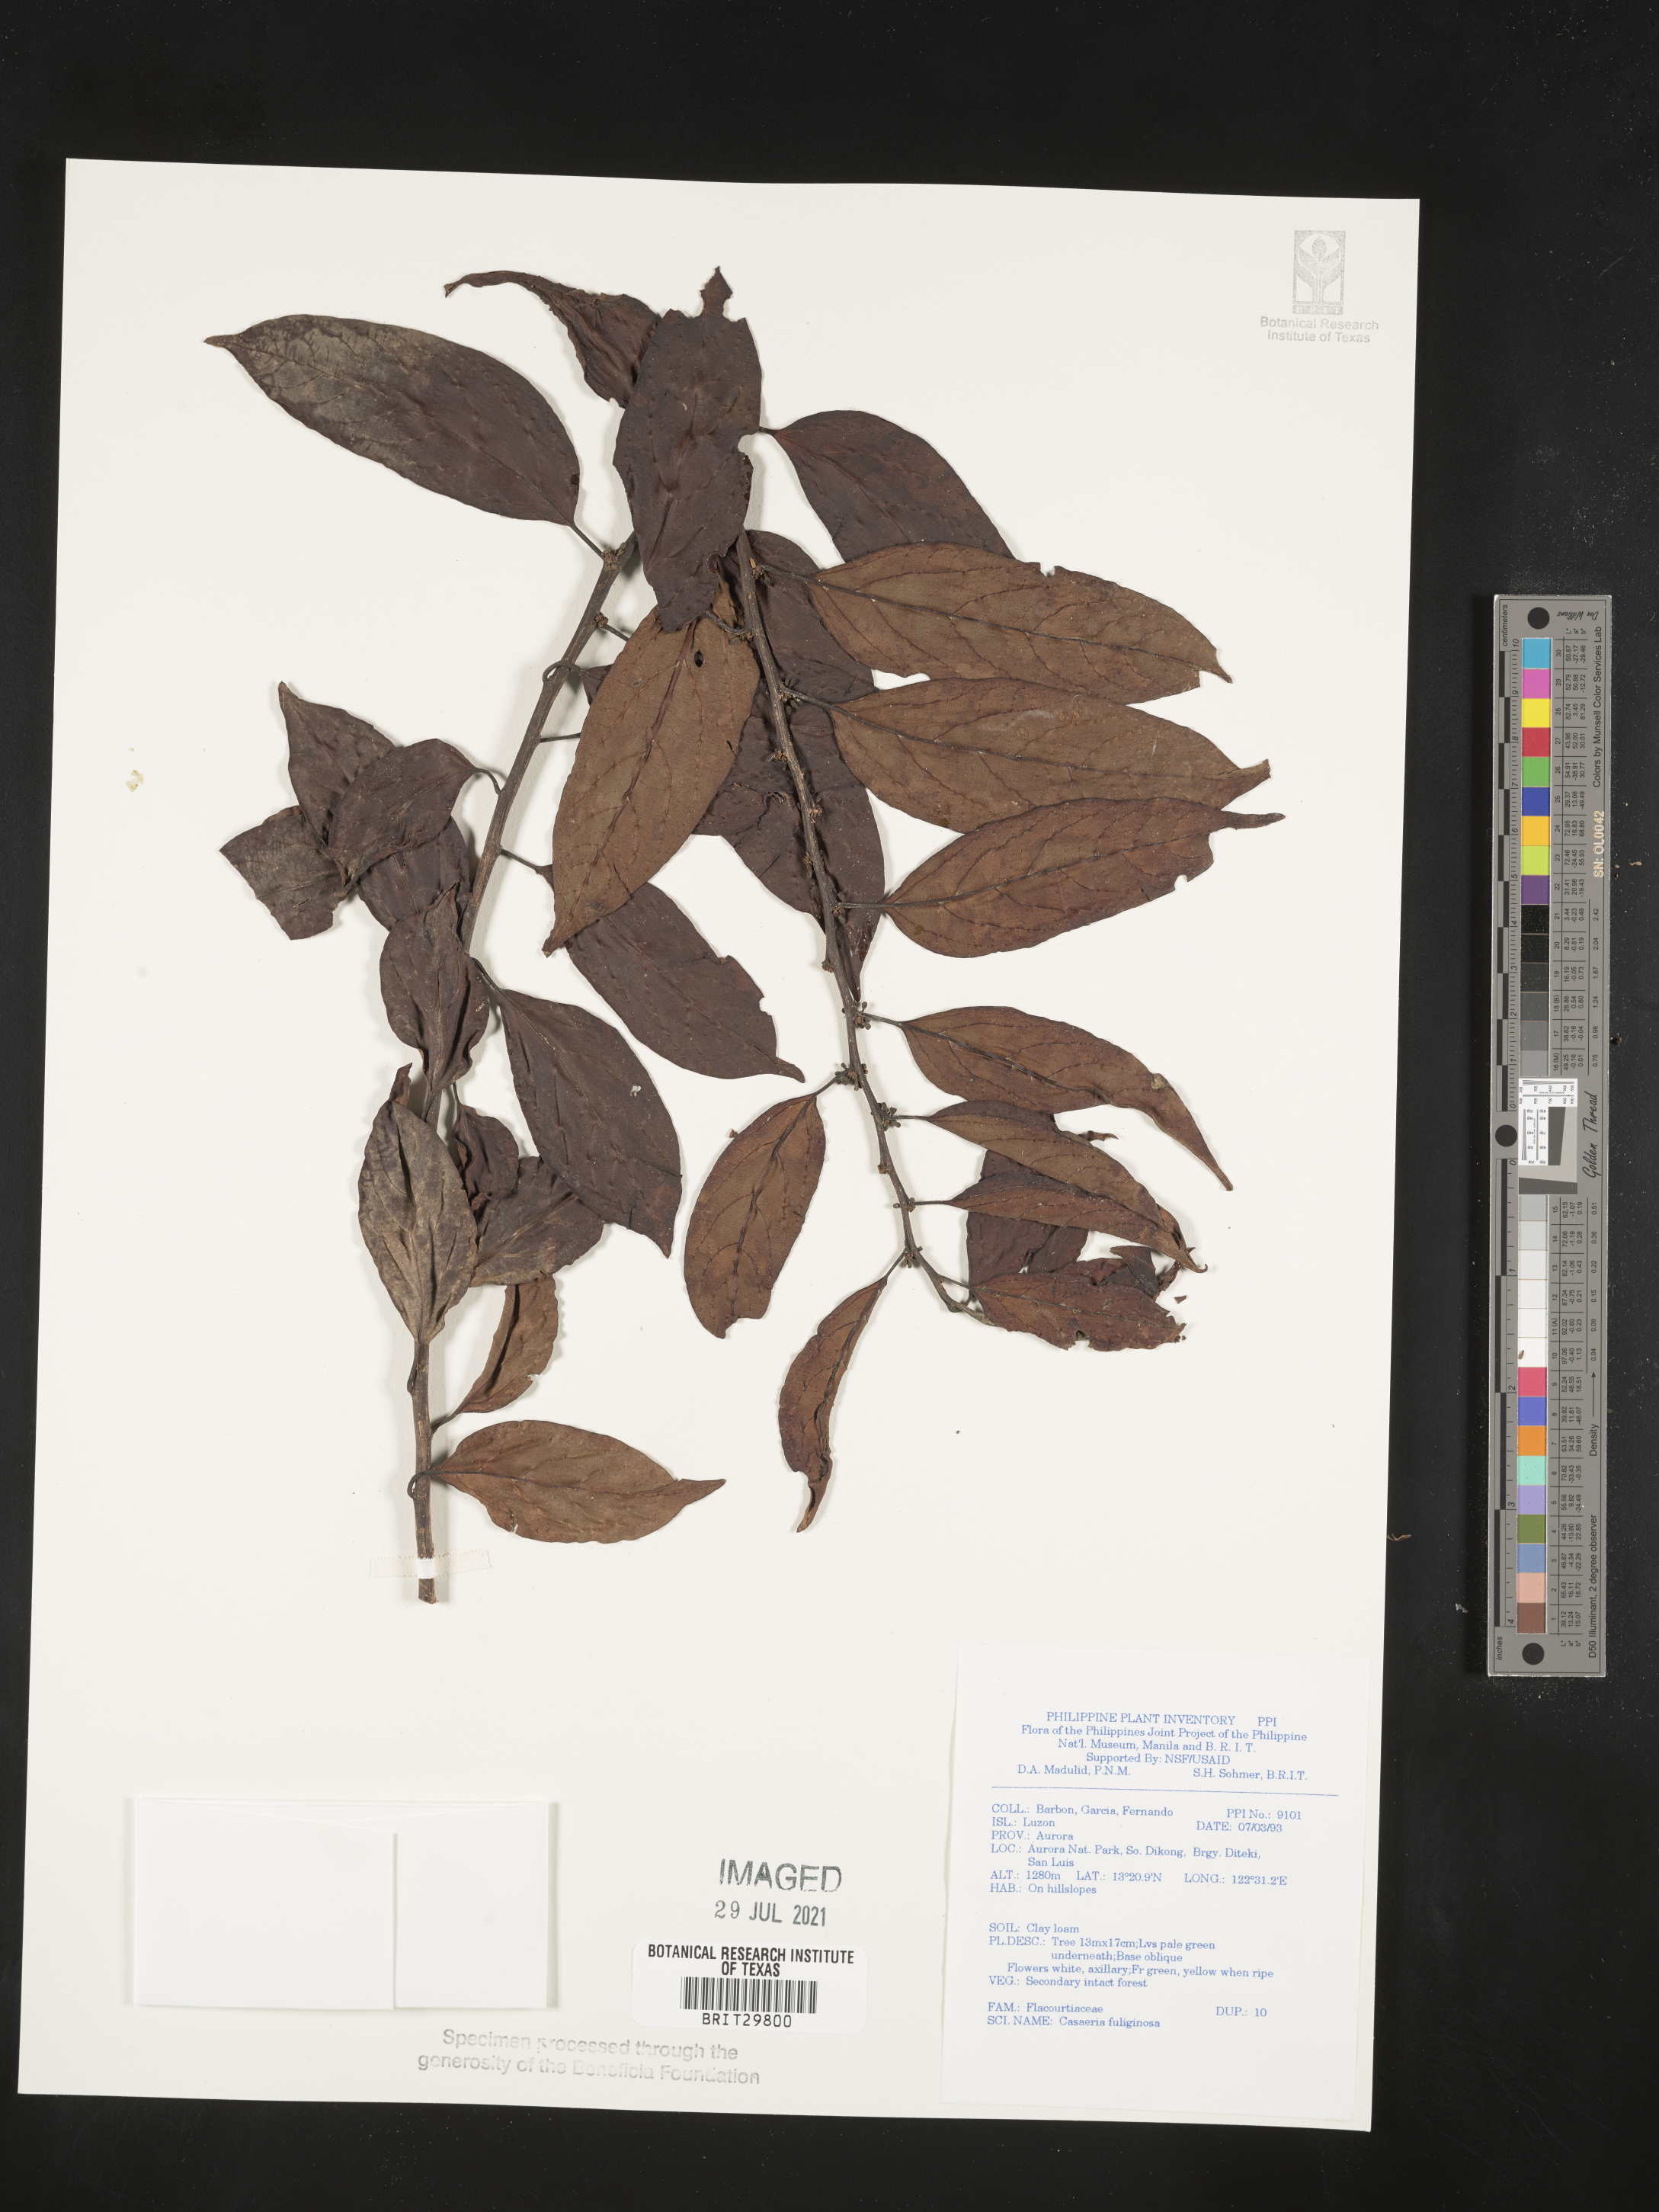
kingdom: Plantae
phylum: Tracheophyta
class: Magnoliopsida
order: Malpighiales
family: Salicaceae
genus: Casearia
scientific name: Casearia fuliginosa
